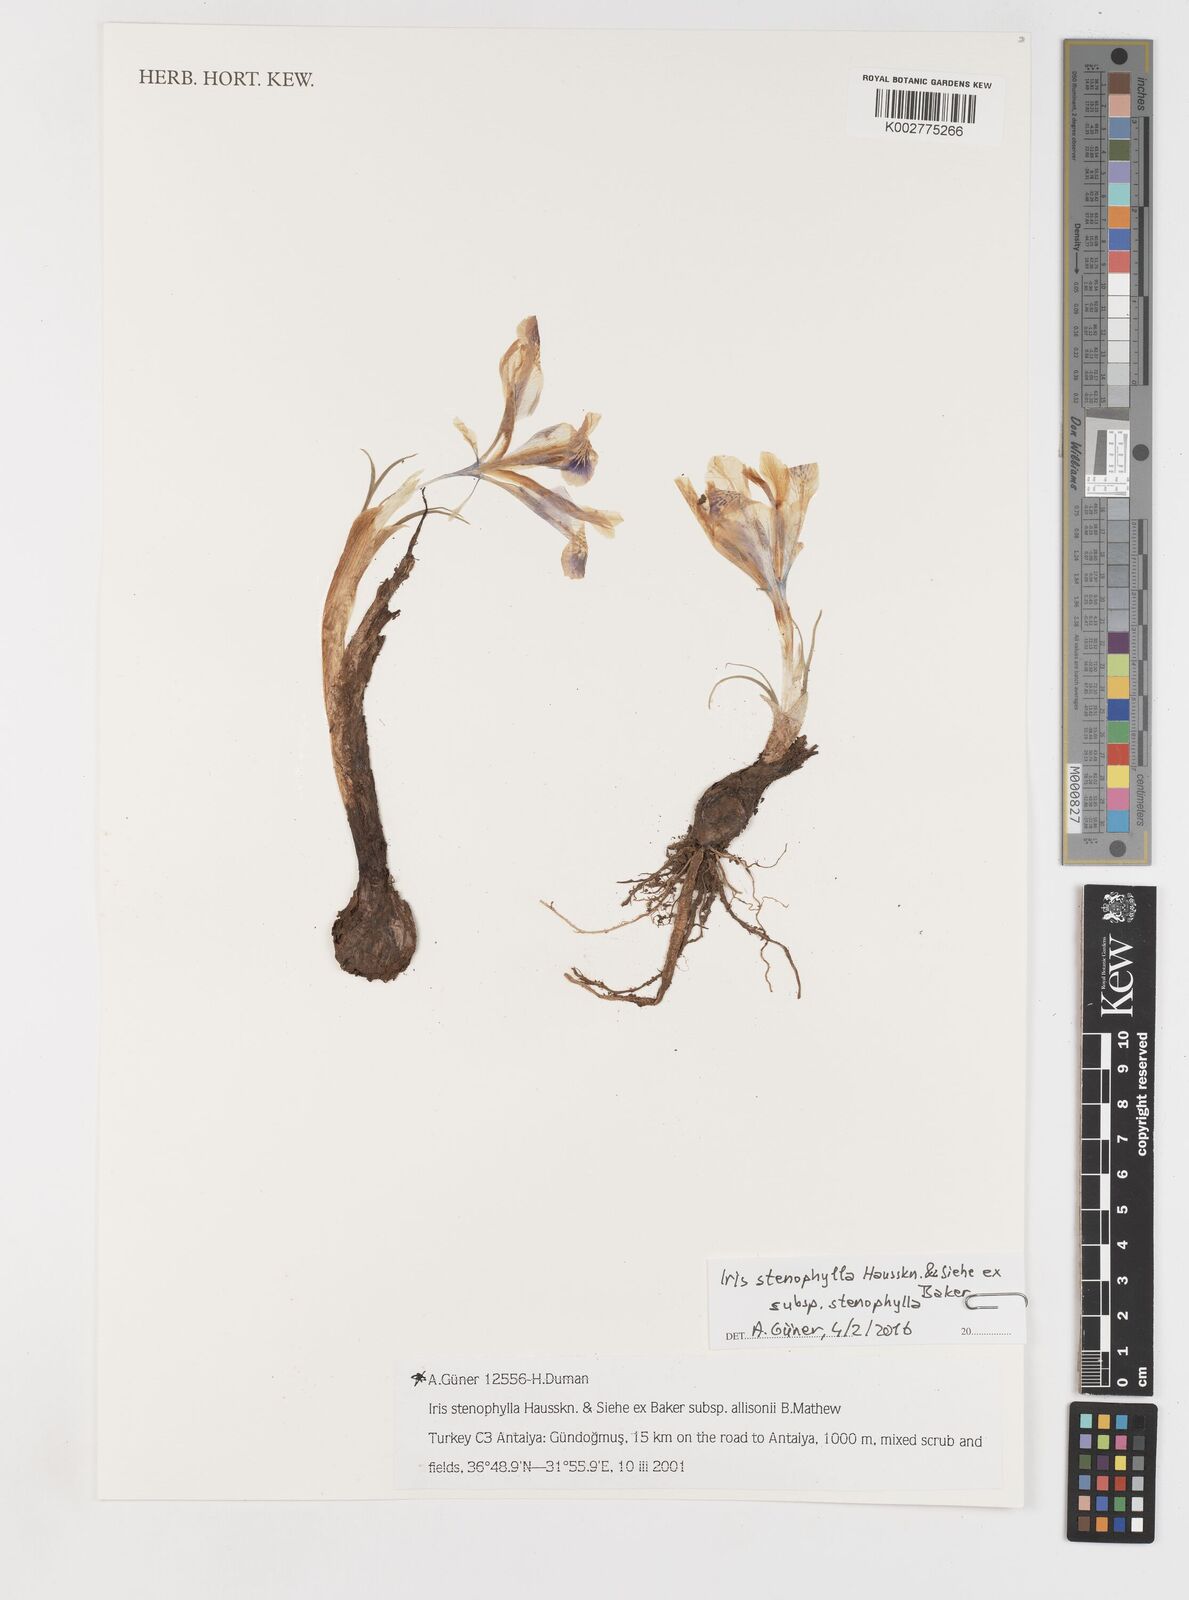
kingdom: Plantae
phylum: Tracheophyta
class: Liliopsida
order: Asparagales
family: Iridaceae
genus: Iris
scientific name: Iris stenophylla
